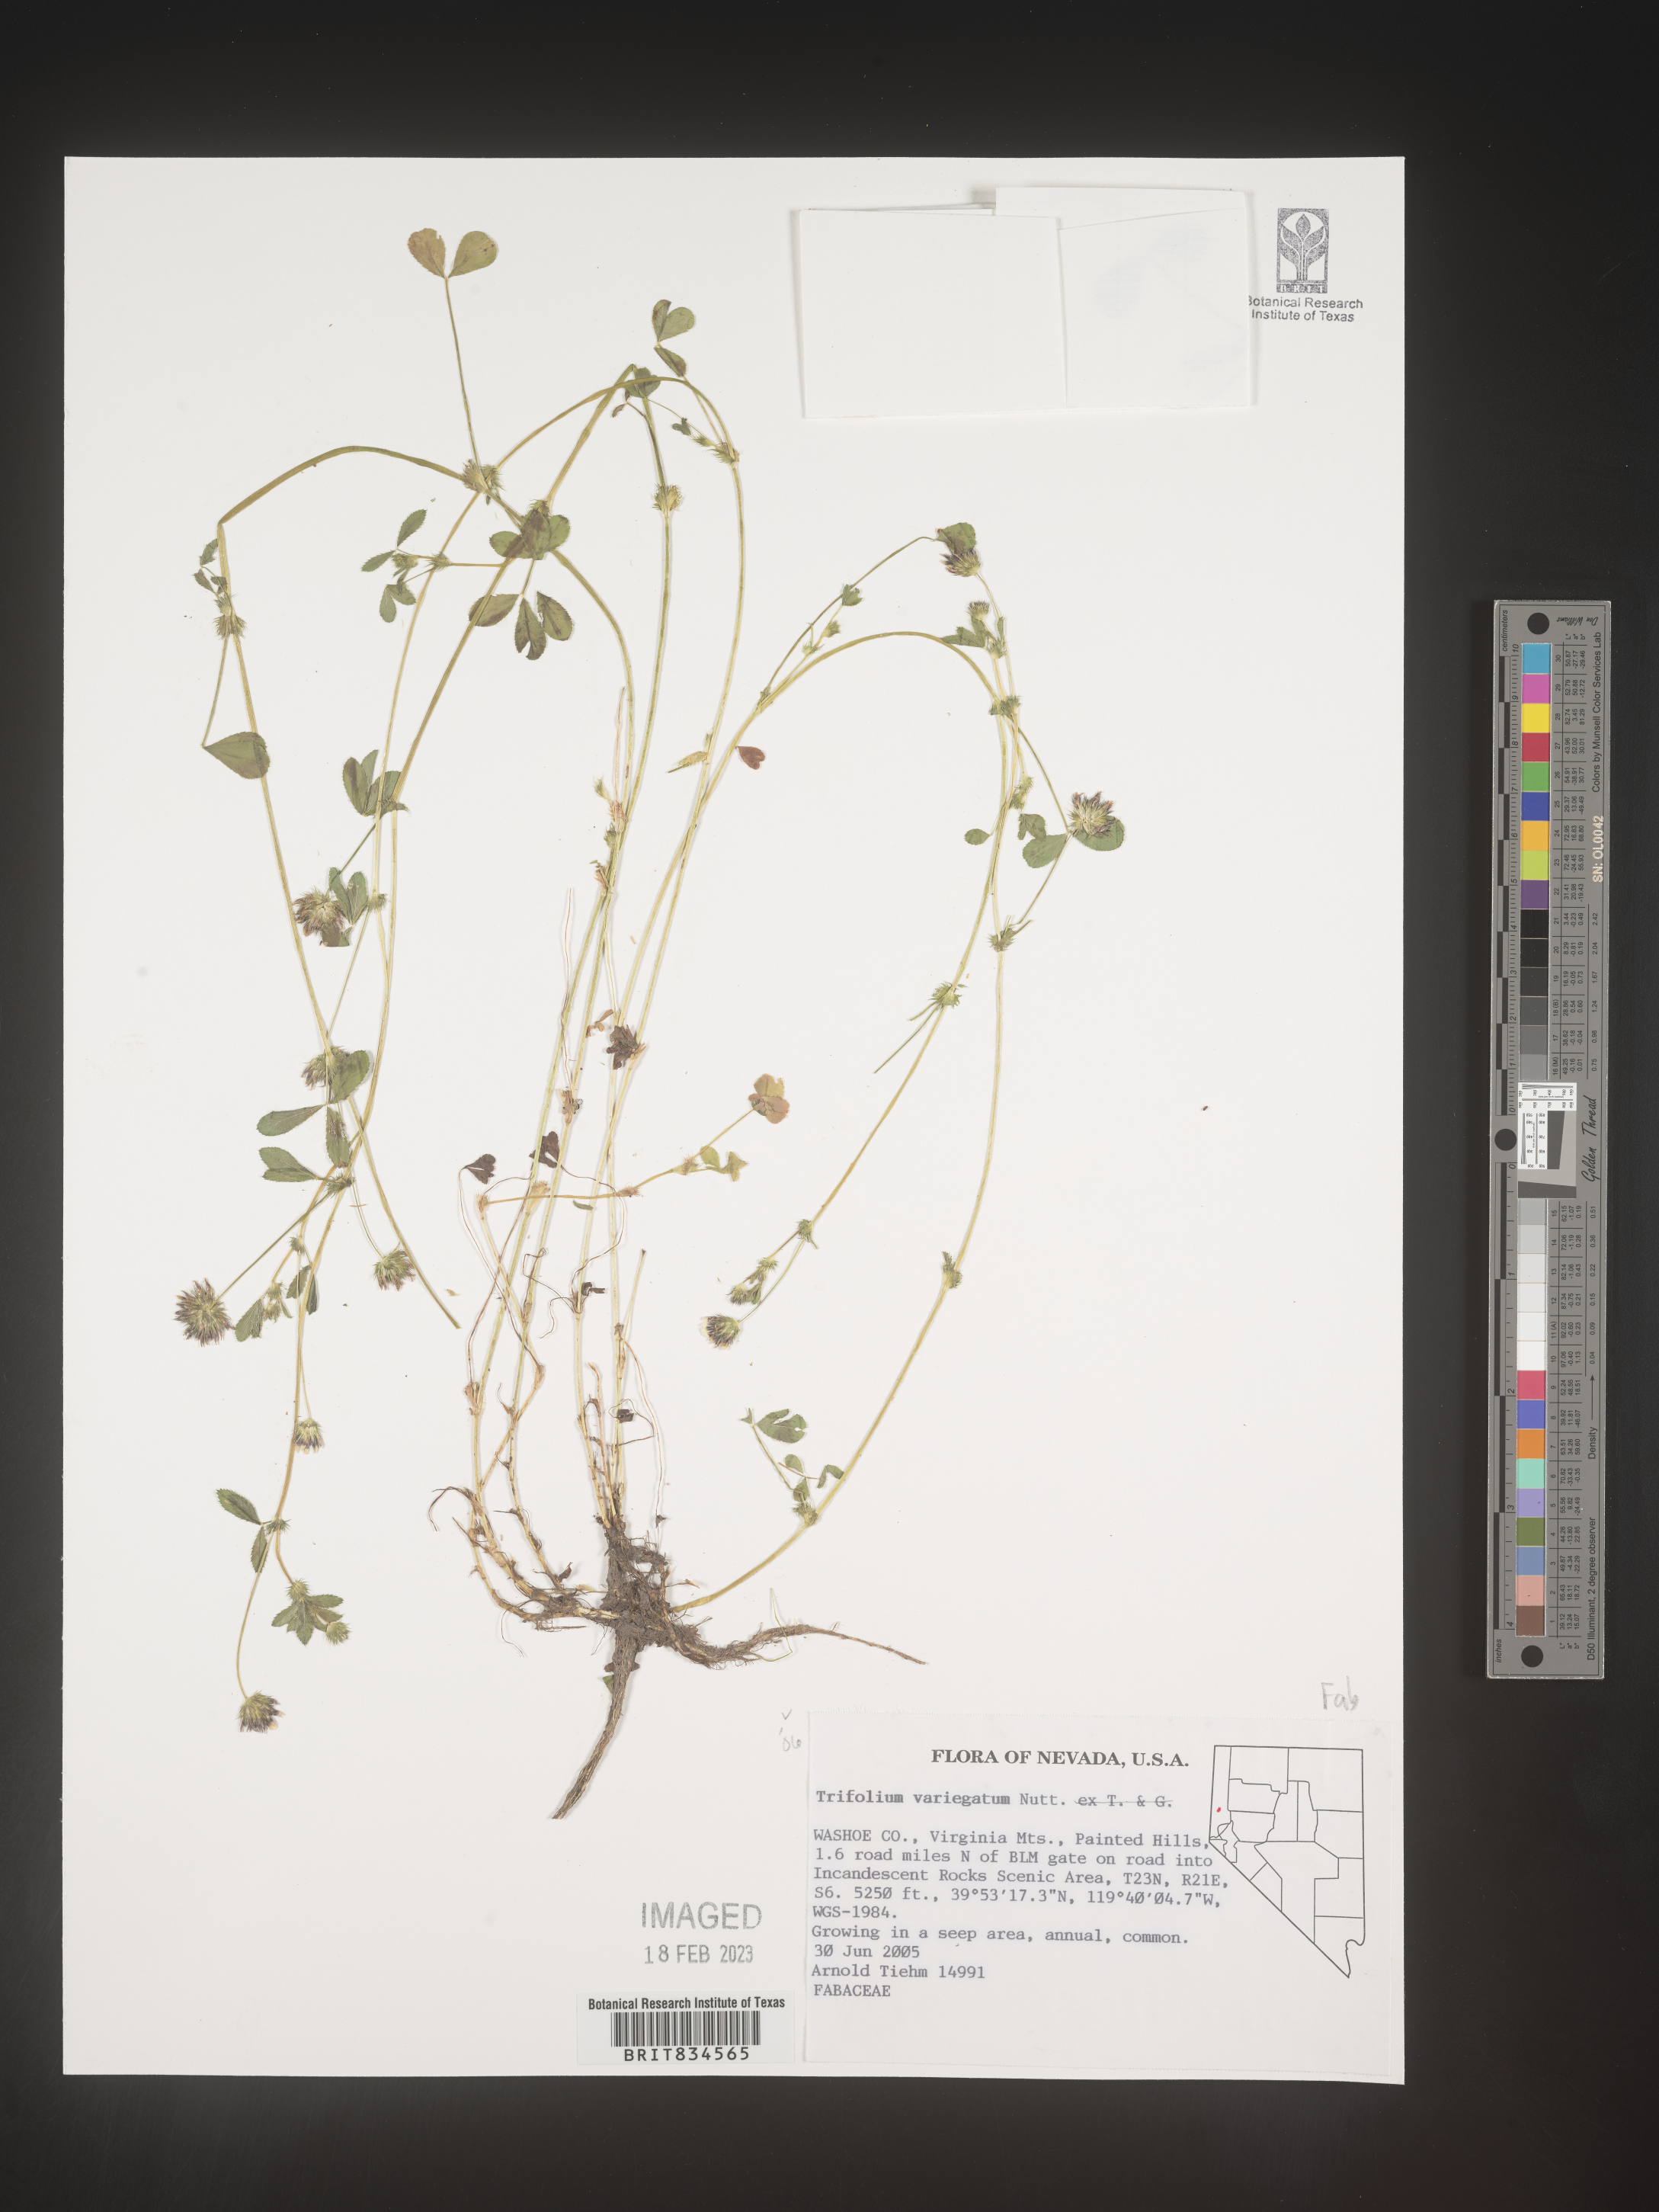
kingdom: Plantae
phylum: Tracheophyta
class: Magnoliopsida
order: Fabales
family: Fabaceae
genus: Trifolium
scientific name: Trifolium
